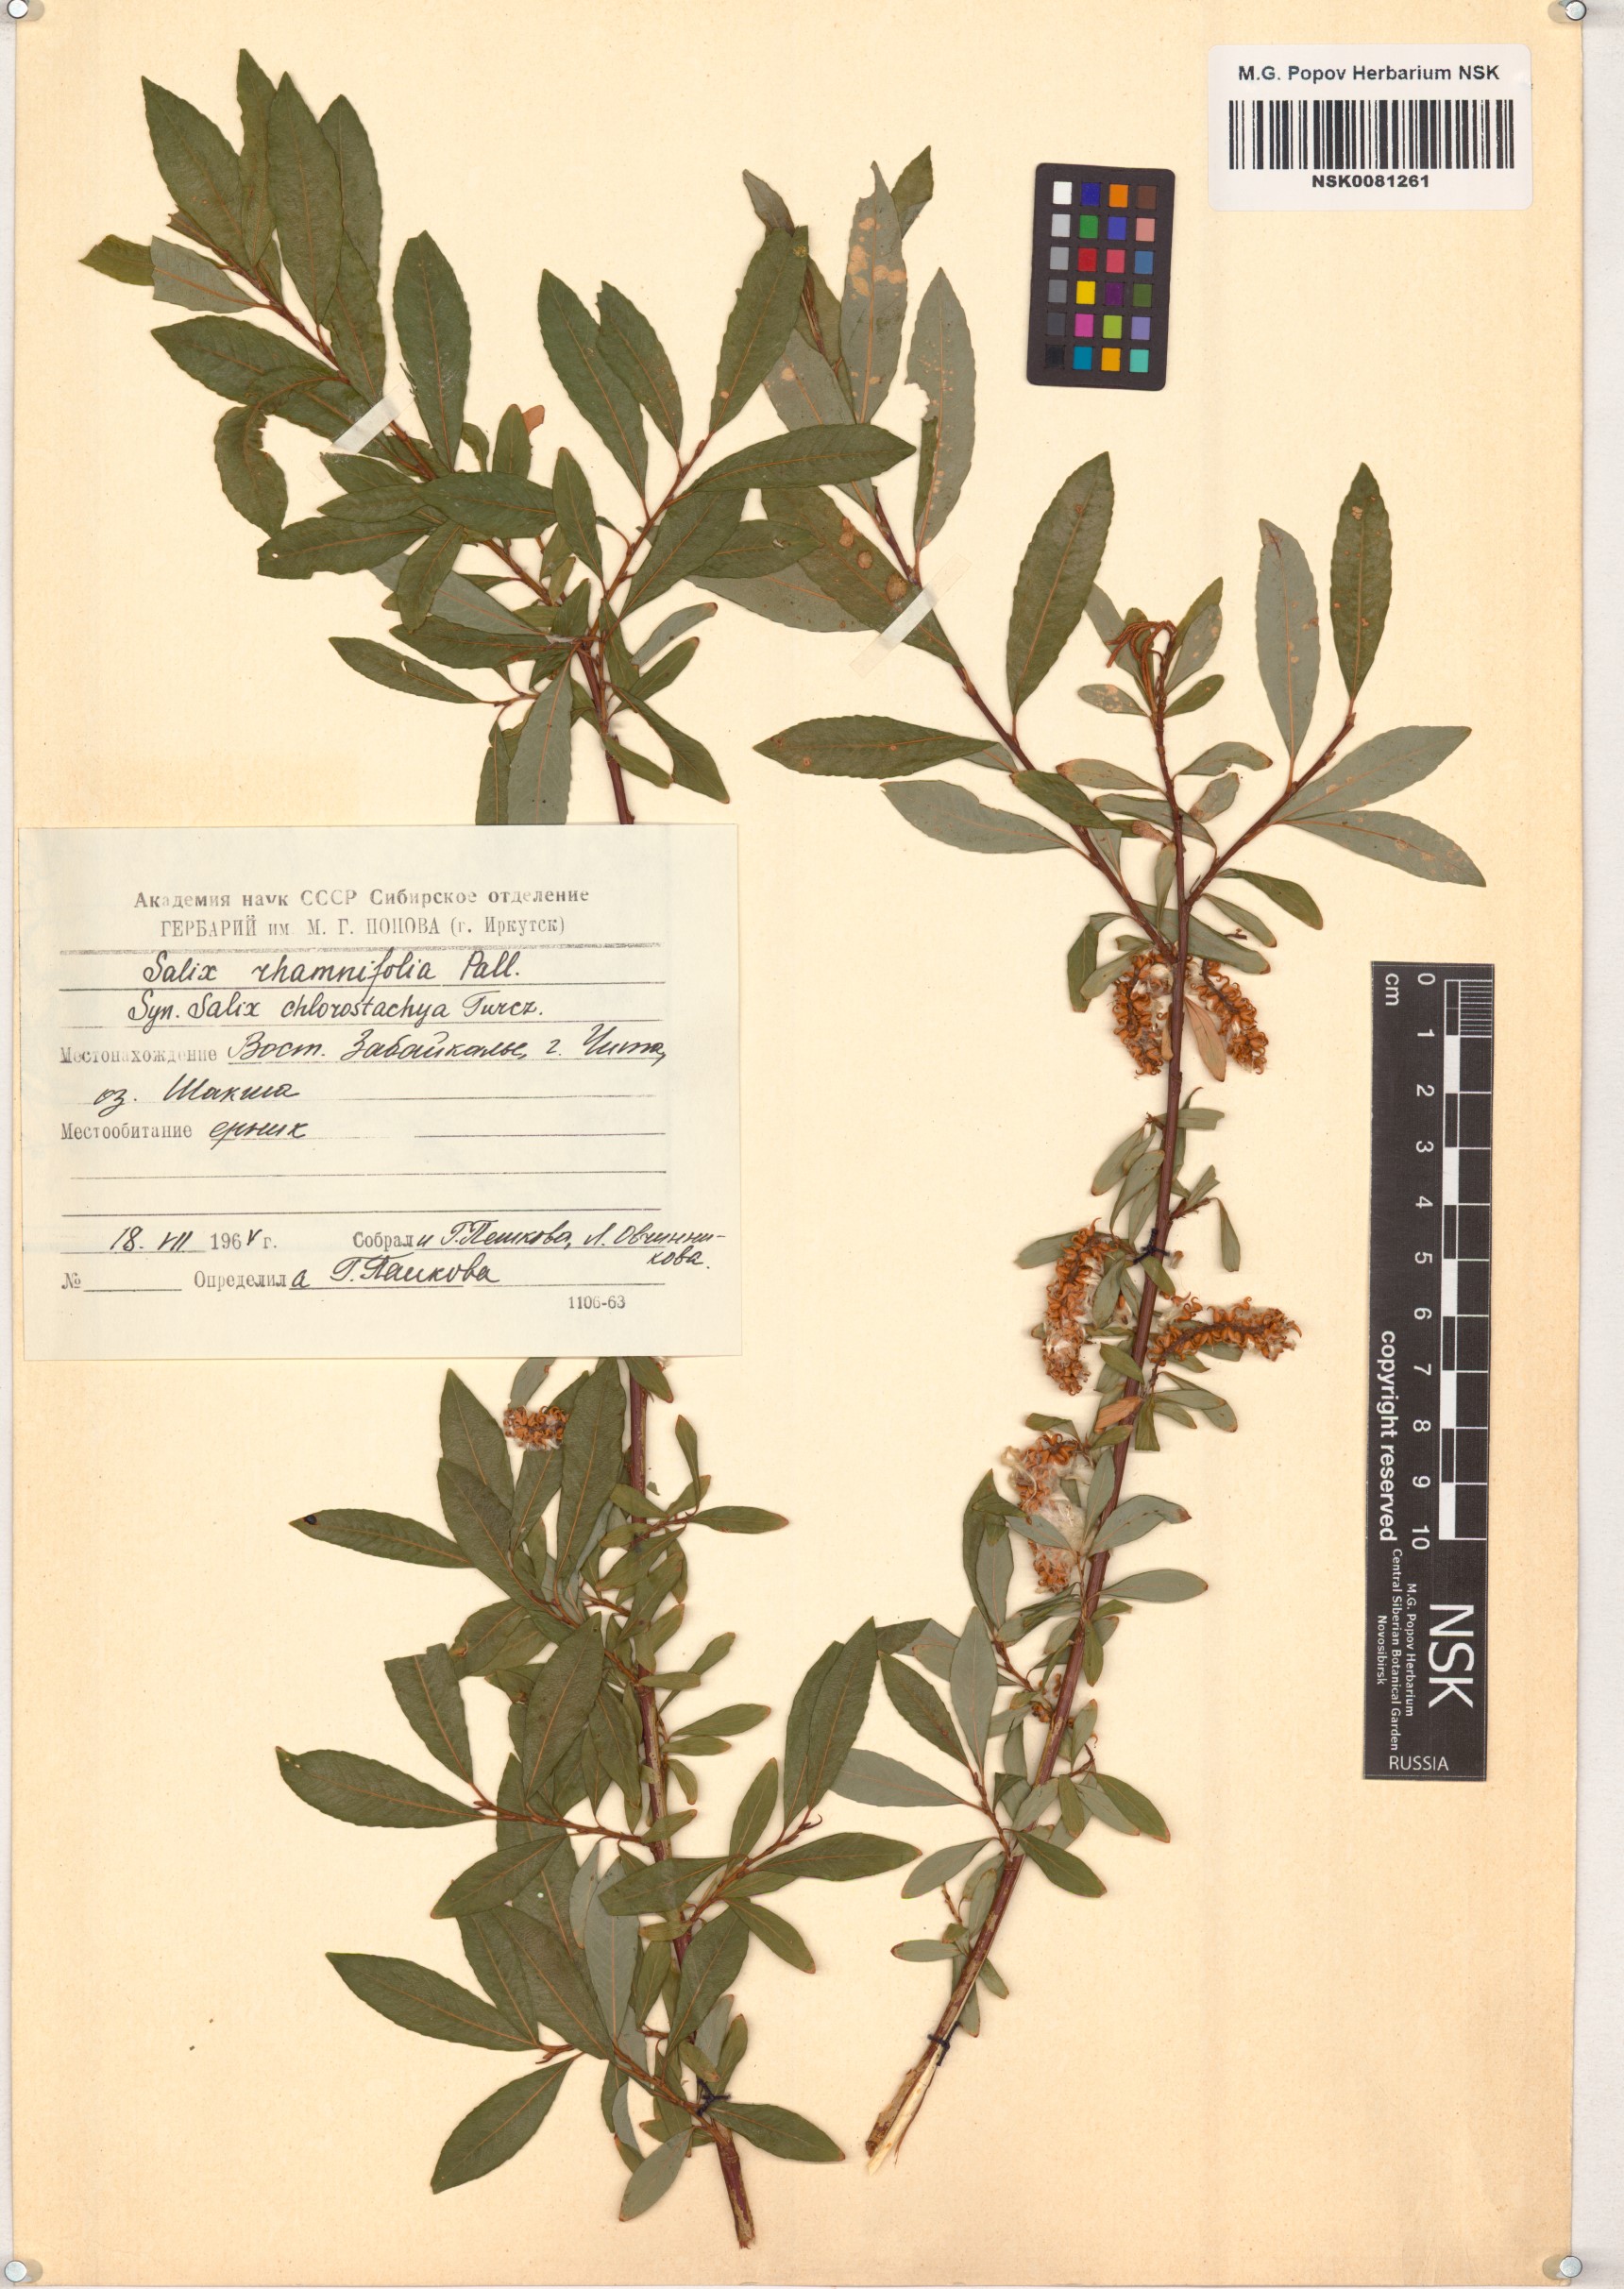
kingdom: Plantae
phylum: Tracheophyta
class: Magnoliopsida
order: Malpighiales
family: Salicaceae
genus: Salix
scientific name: Salix rhamnifolia
